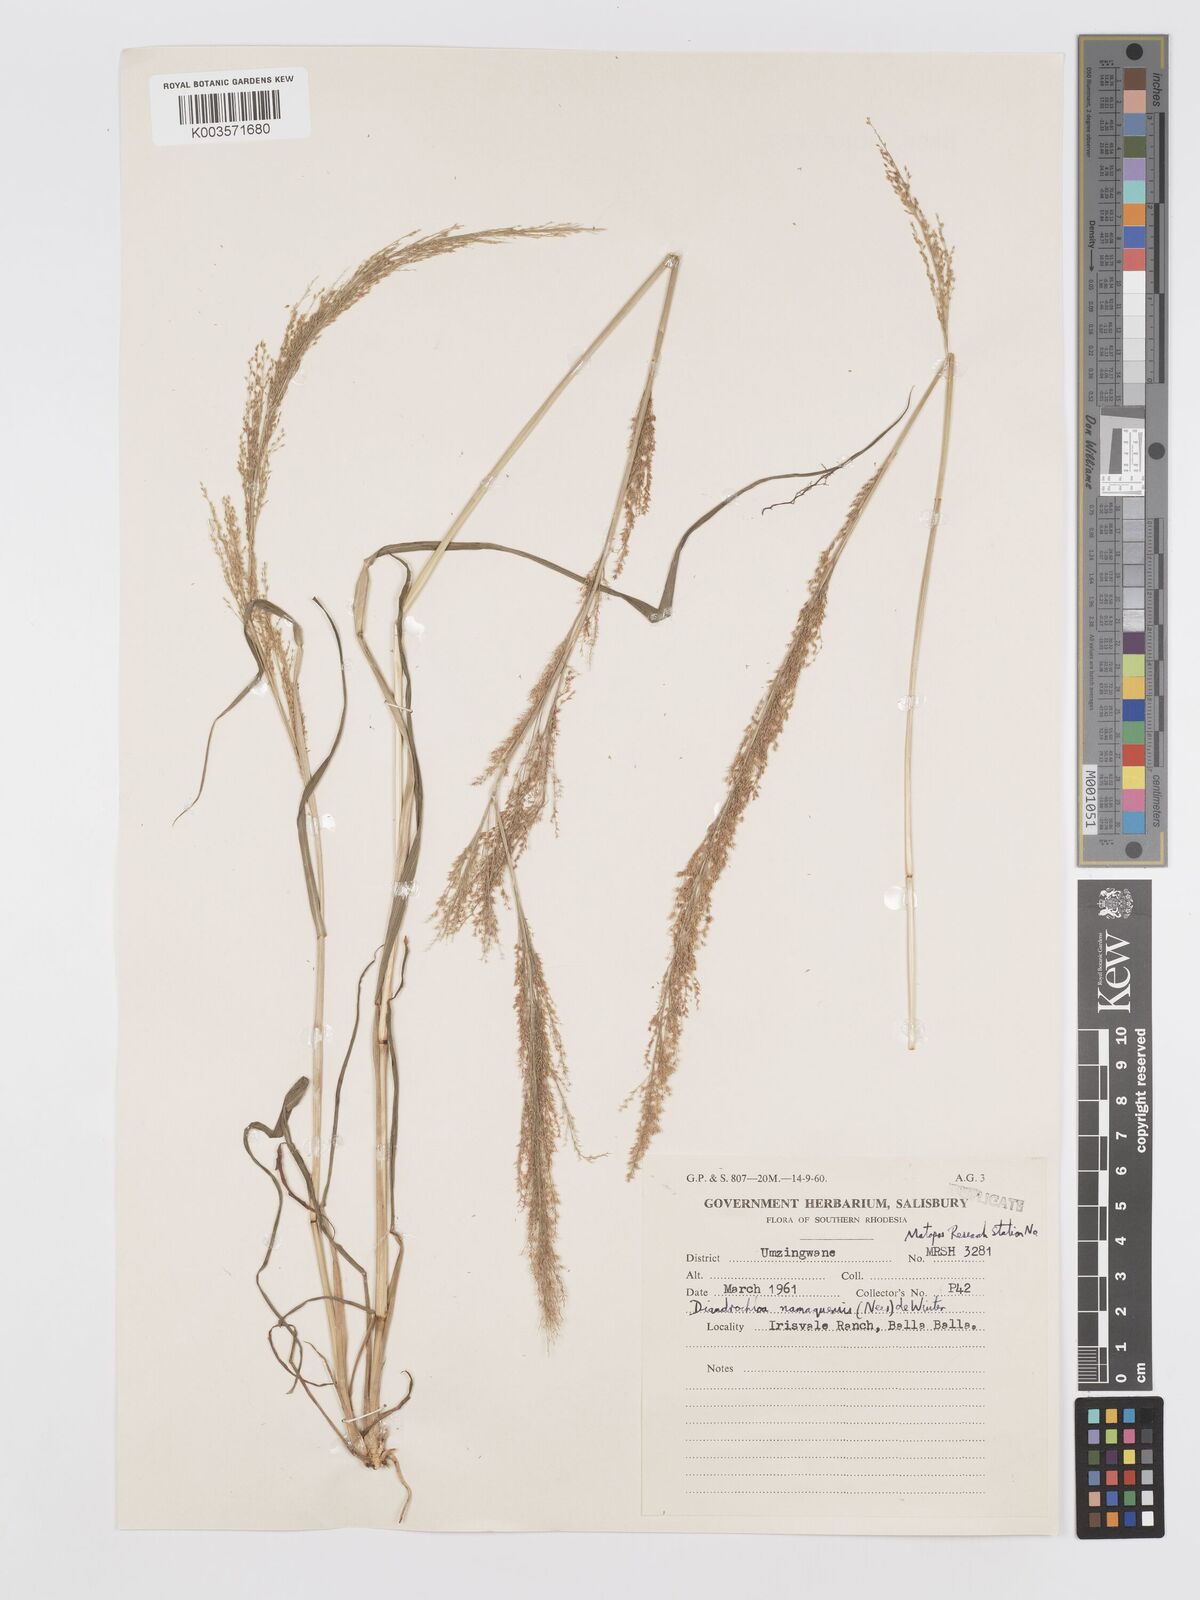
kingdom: Plantae
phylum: Tracheophyta
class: Liliopsida
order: Poales
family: Poaceae
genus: Eragrostis
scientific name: Eragrostis japonica
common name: Pond lovegrass
